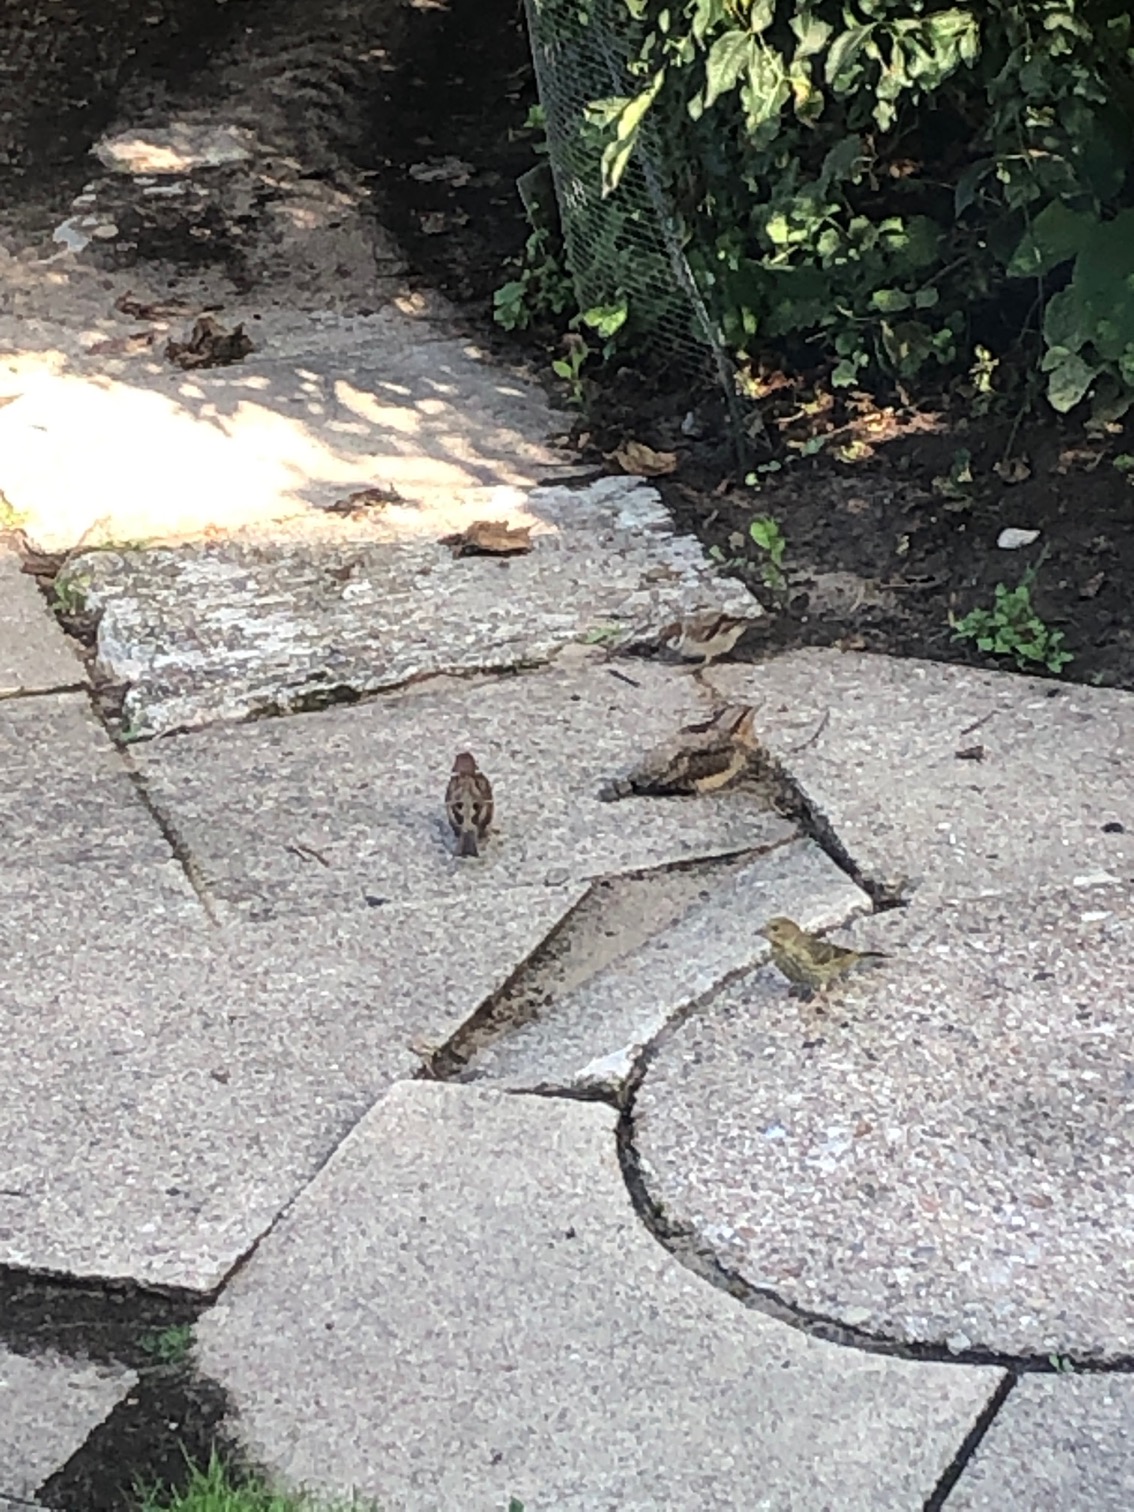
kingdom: Animalia
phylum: Chordata
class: Aves
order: Piciformes
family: Picidae
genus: Jynx
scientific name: Jynx torquilla
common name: Vendehals
